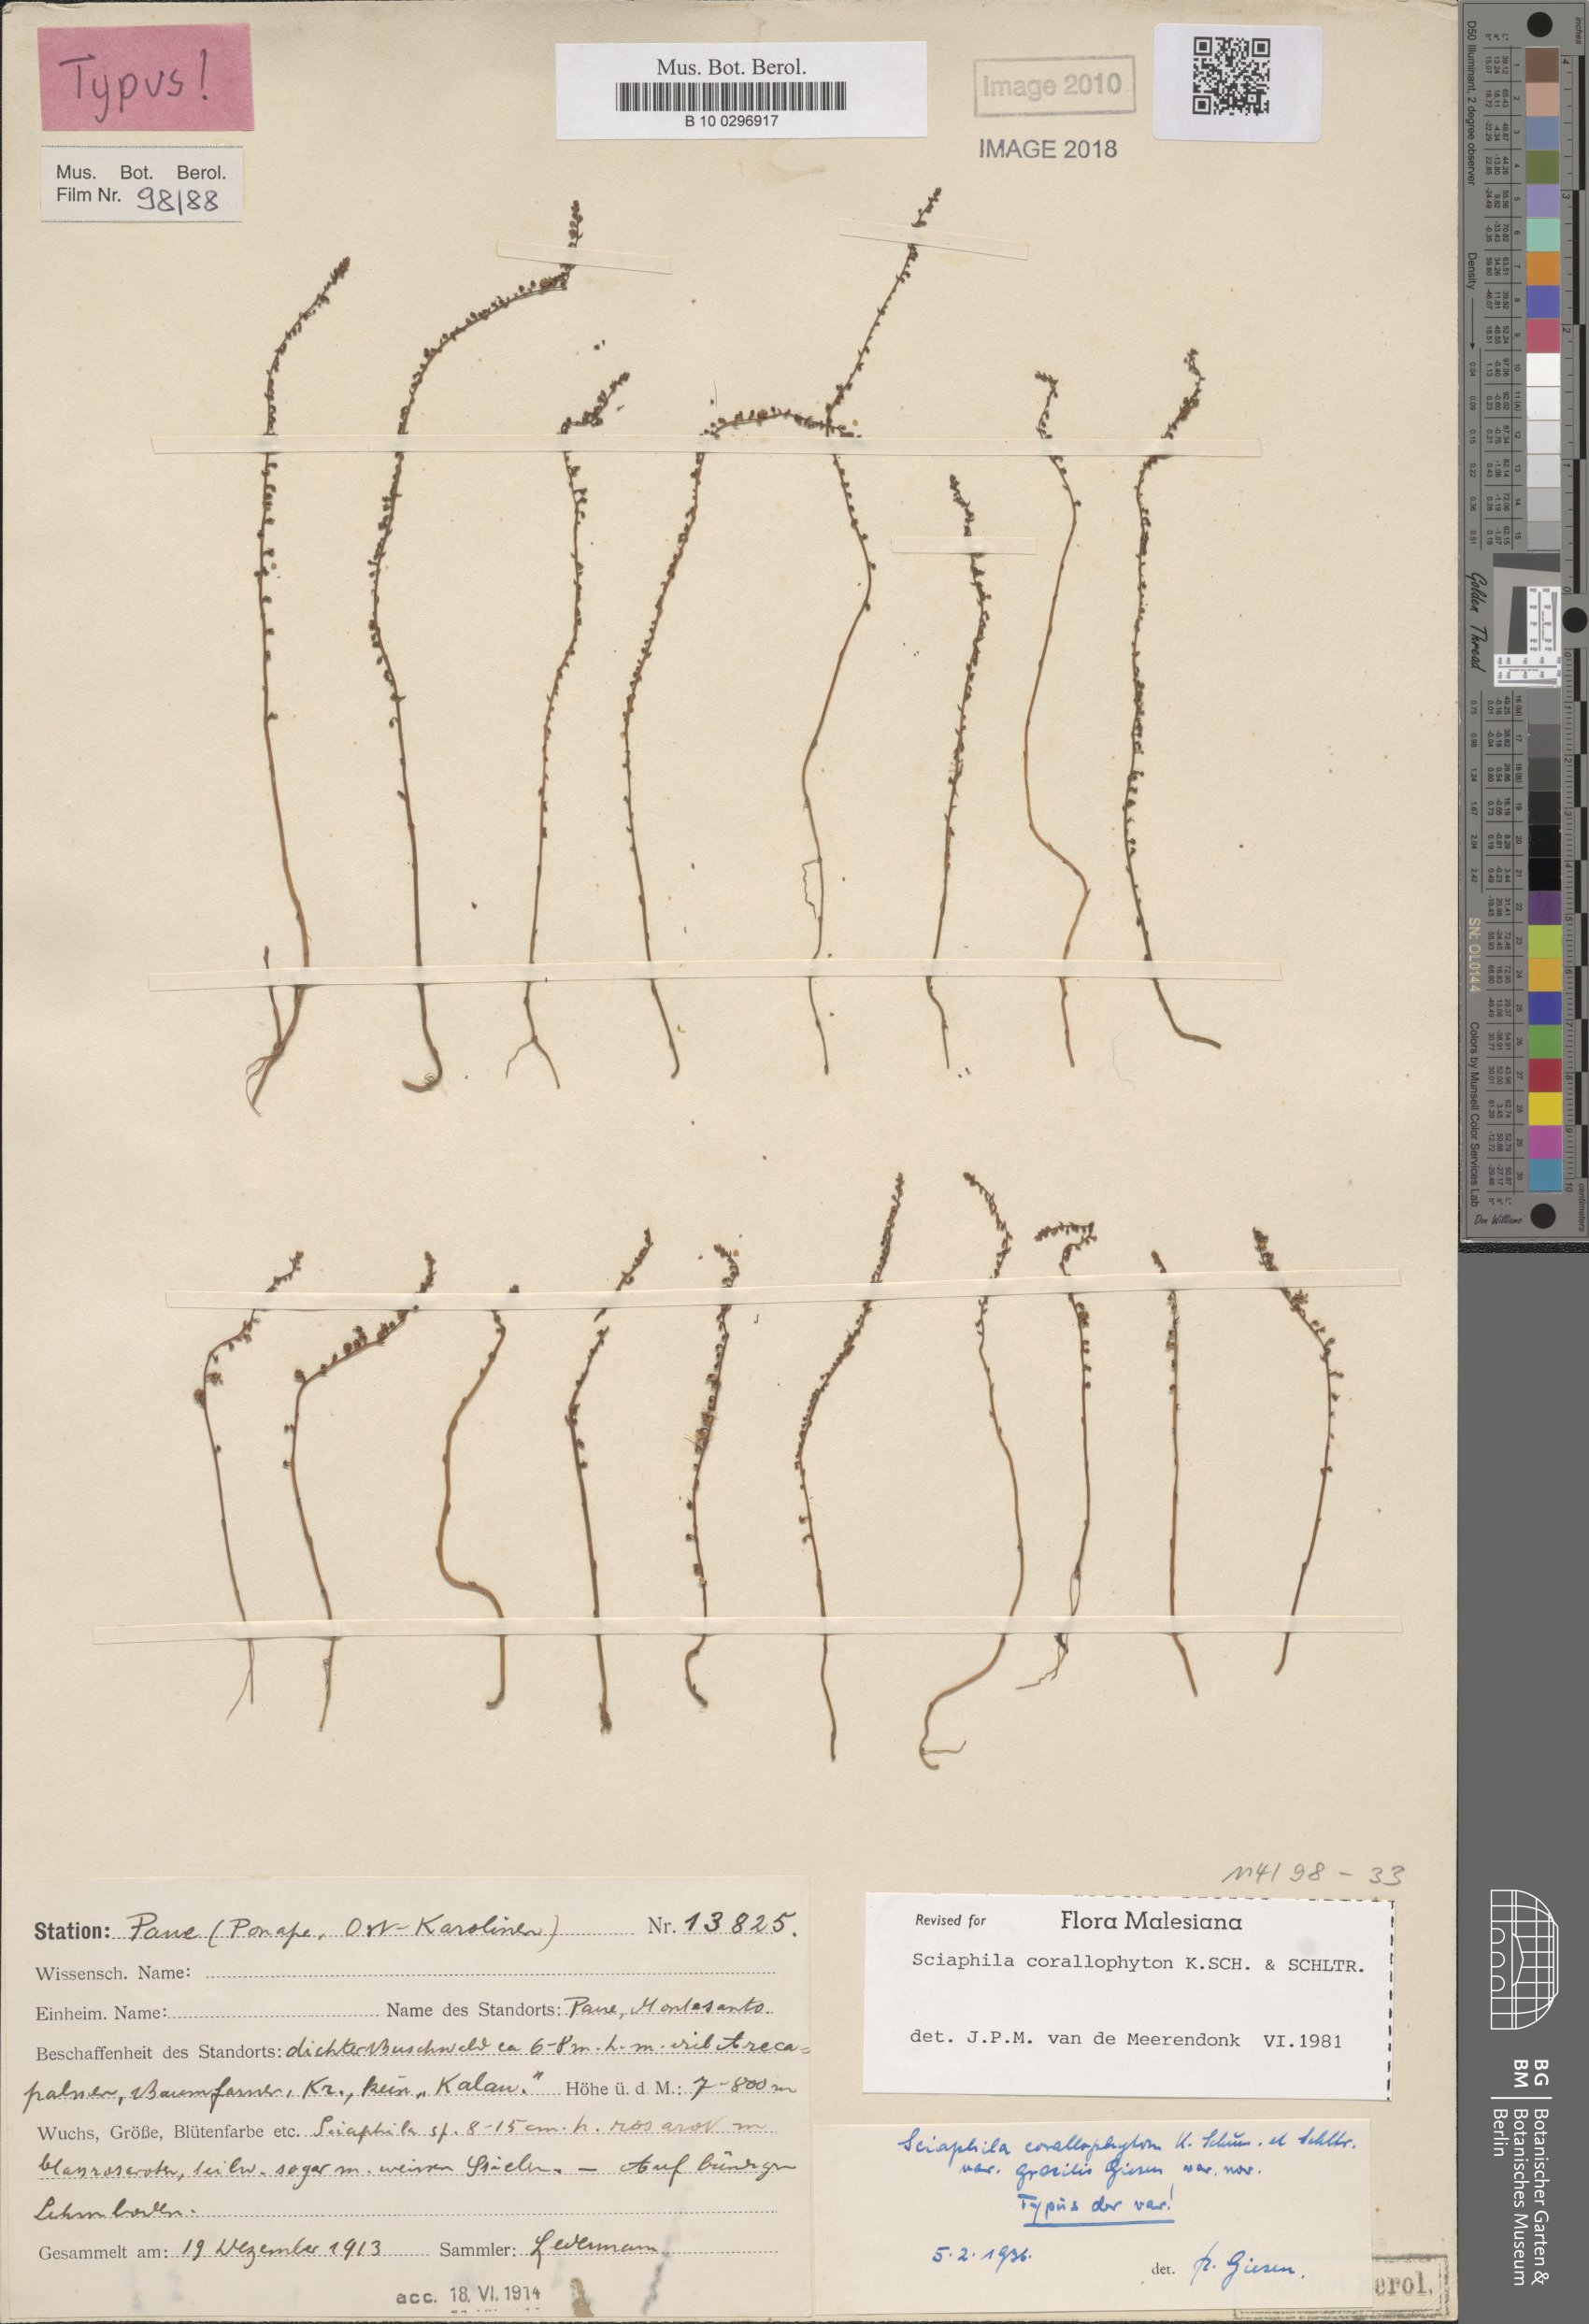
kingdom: Plantae
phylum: Tracheophyta
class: Liliopsida
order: Pandanales
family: Triuridaceae
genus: Sciaphila
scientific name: Sciaphila corallophyton
